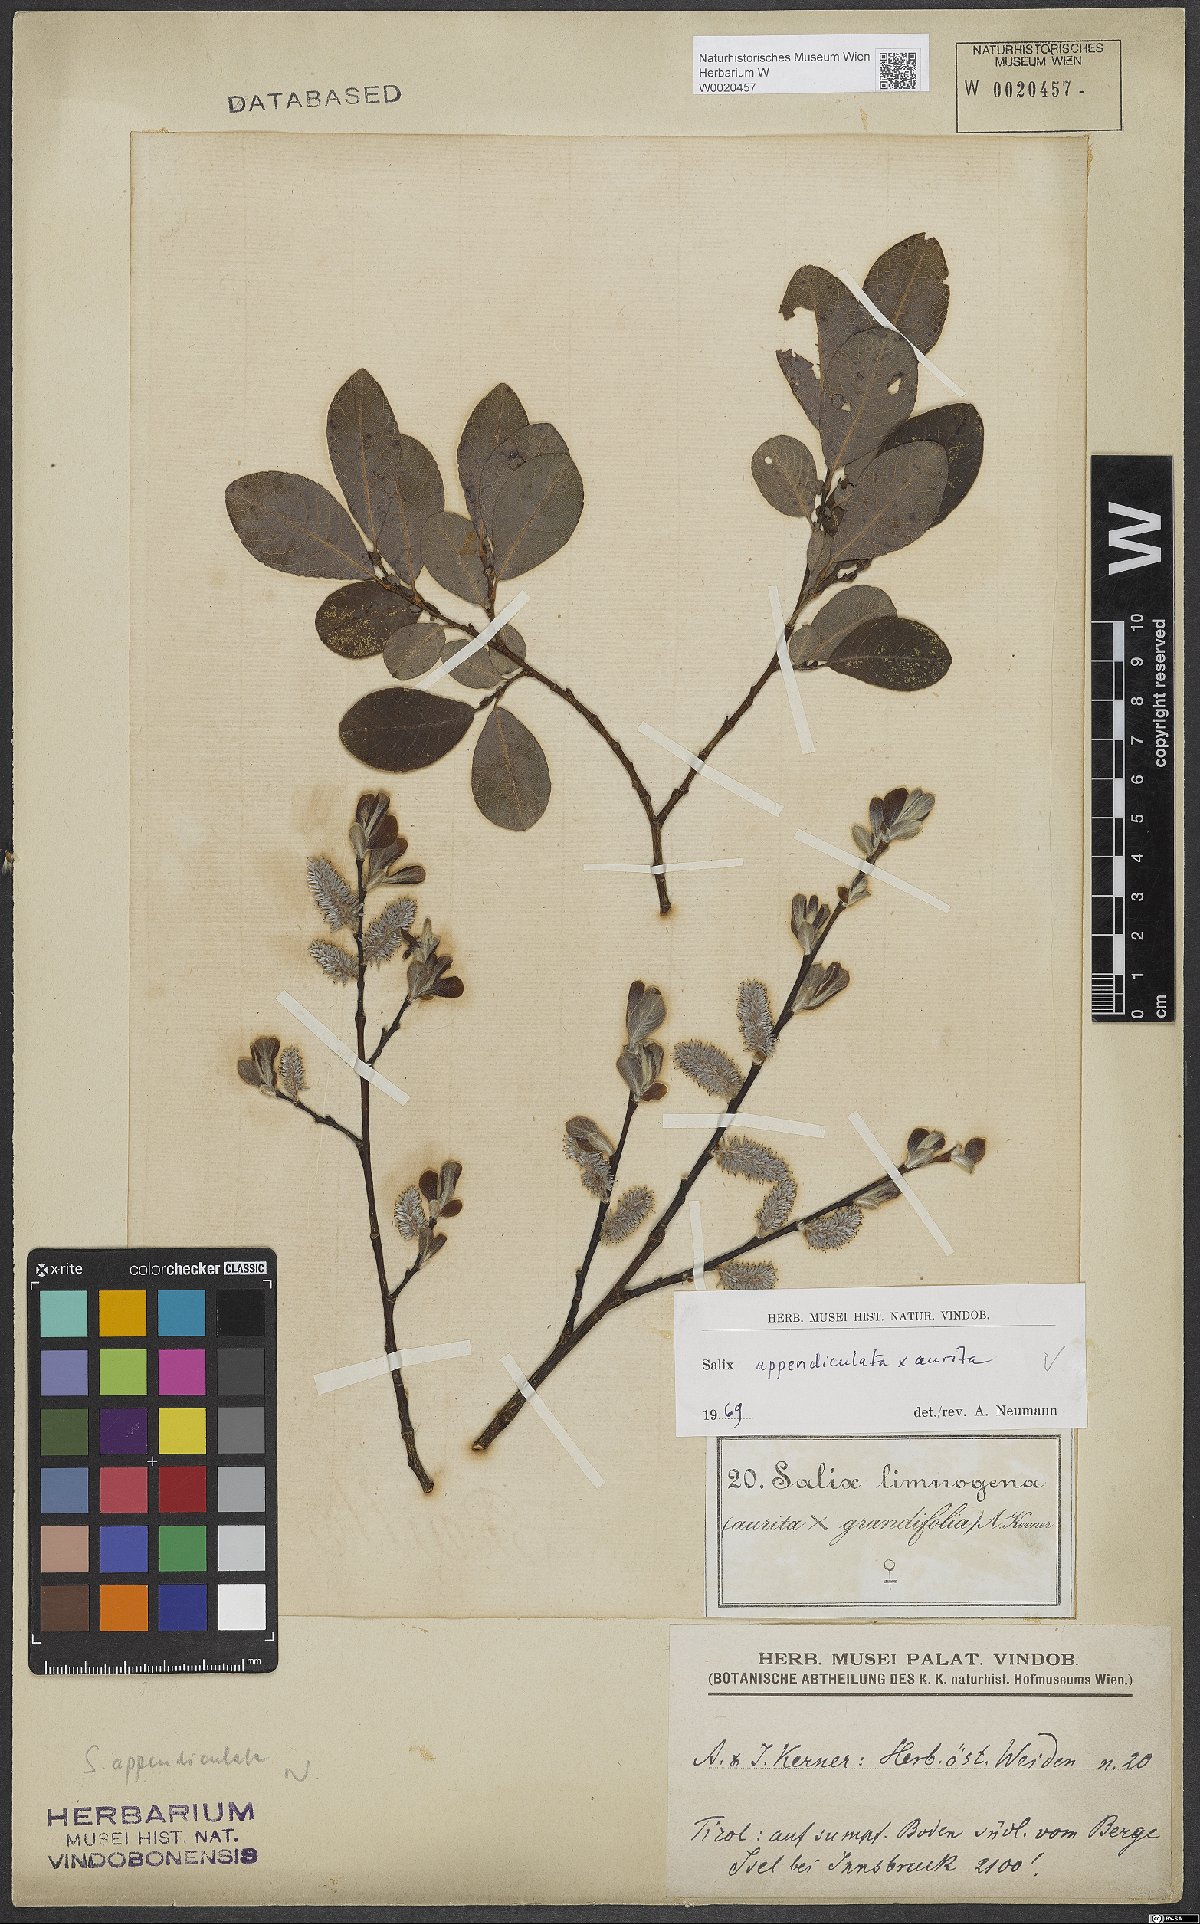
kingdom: Plantae
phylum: Tracheophyta
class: Magnoliopsida
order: Malpighiales
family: Salicaceae
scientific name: Salicaceae
